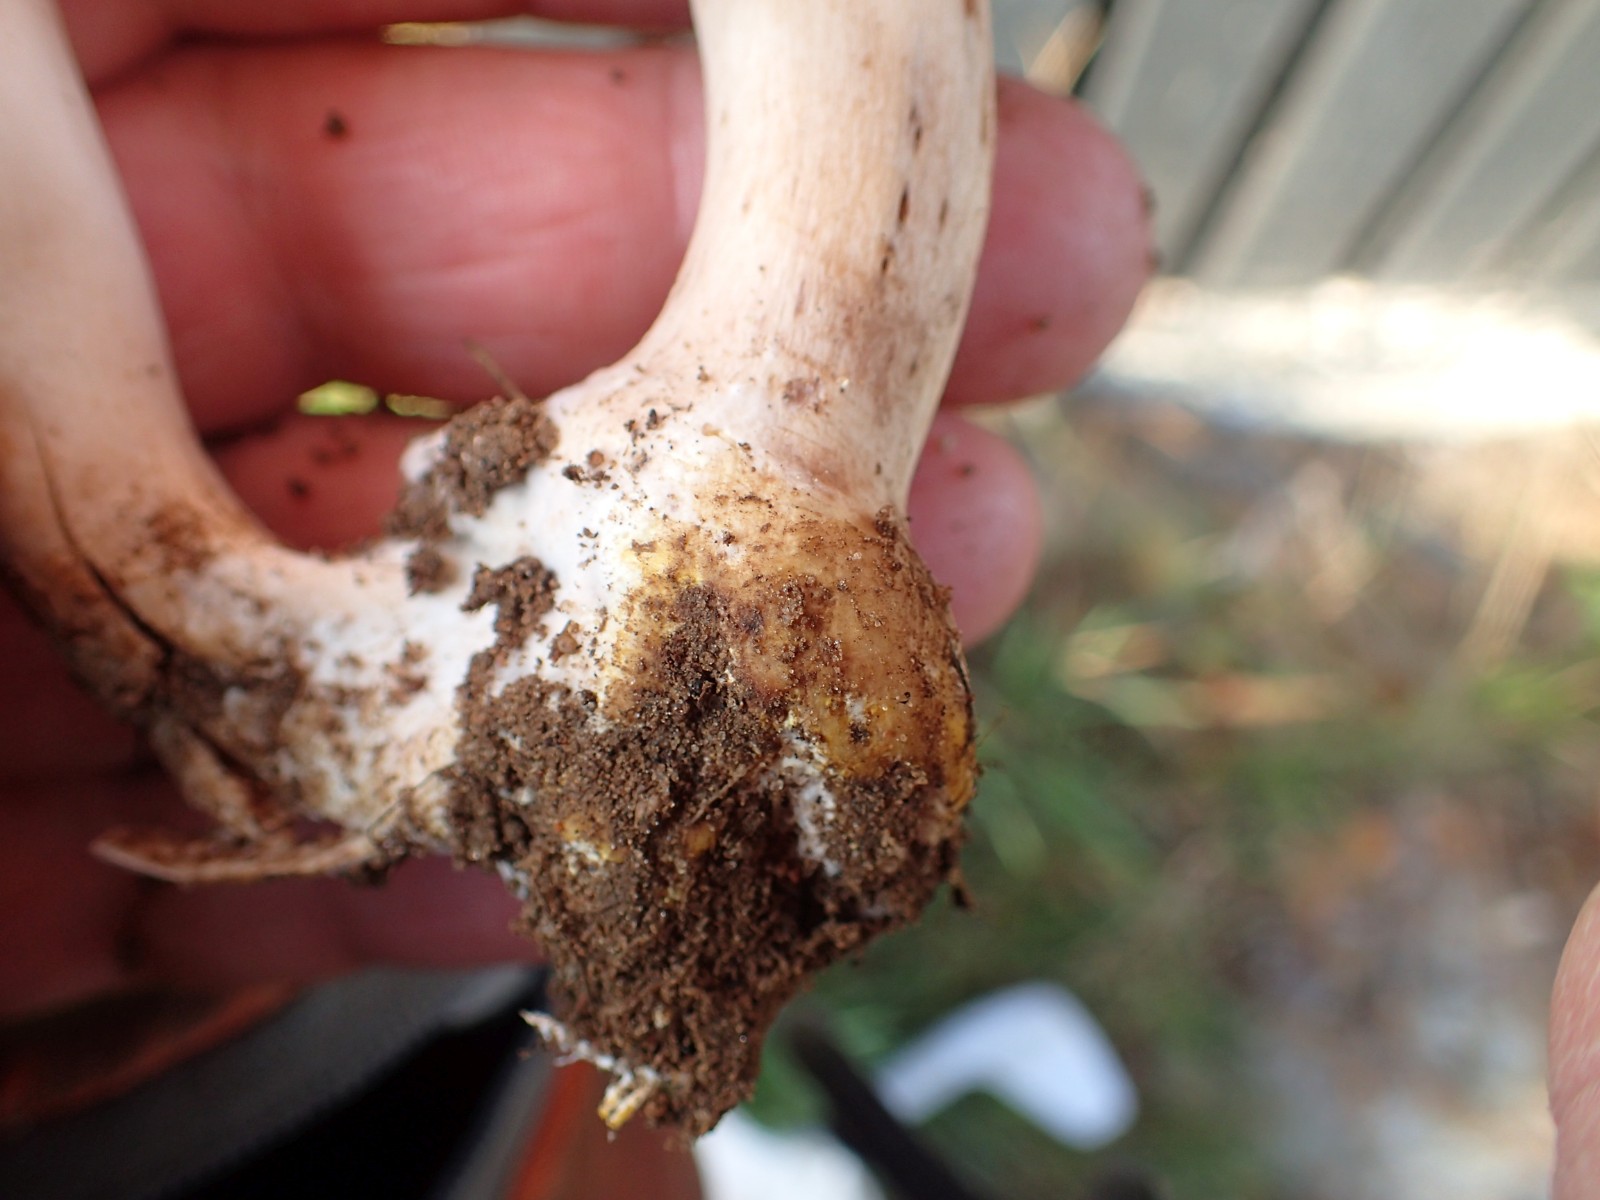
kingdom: Fungi
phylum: Basidiomycota
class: Agaricomycetes
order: Agaricales
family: Agaricaceae
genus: Agaricus
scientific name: Agaricus xanthodermus
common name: karbol-champignon
